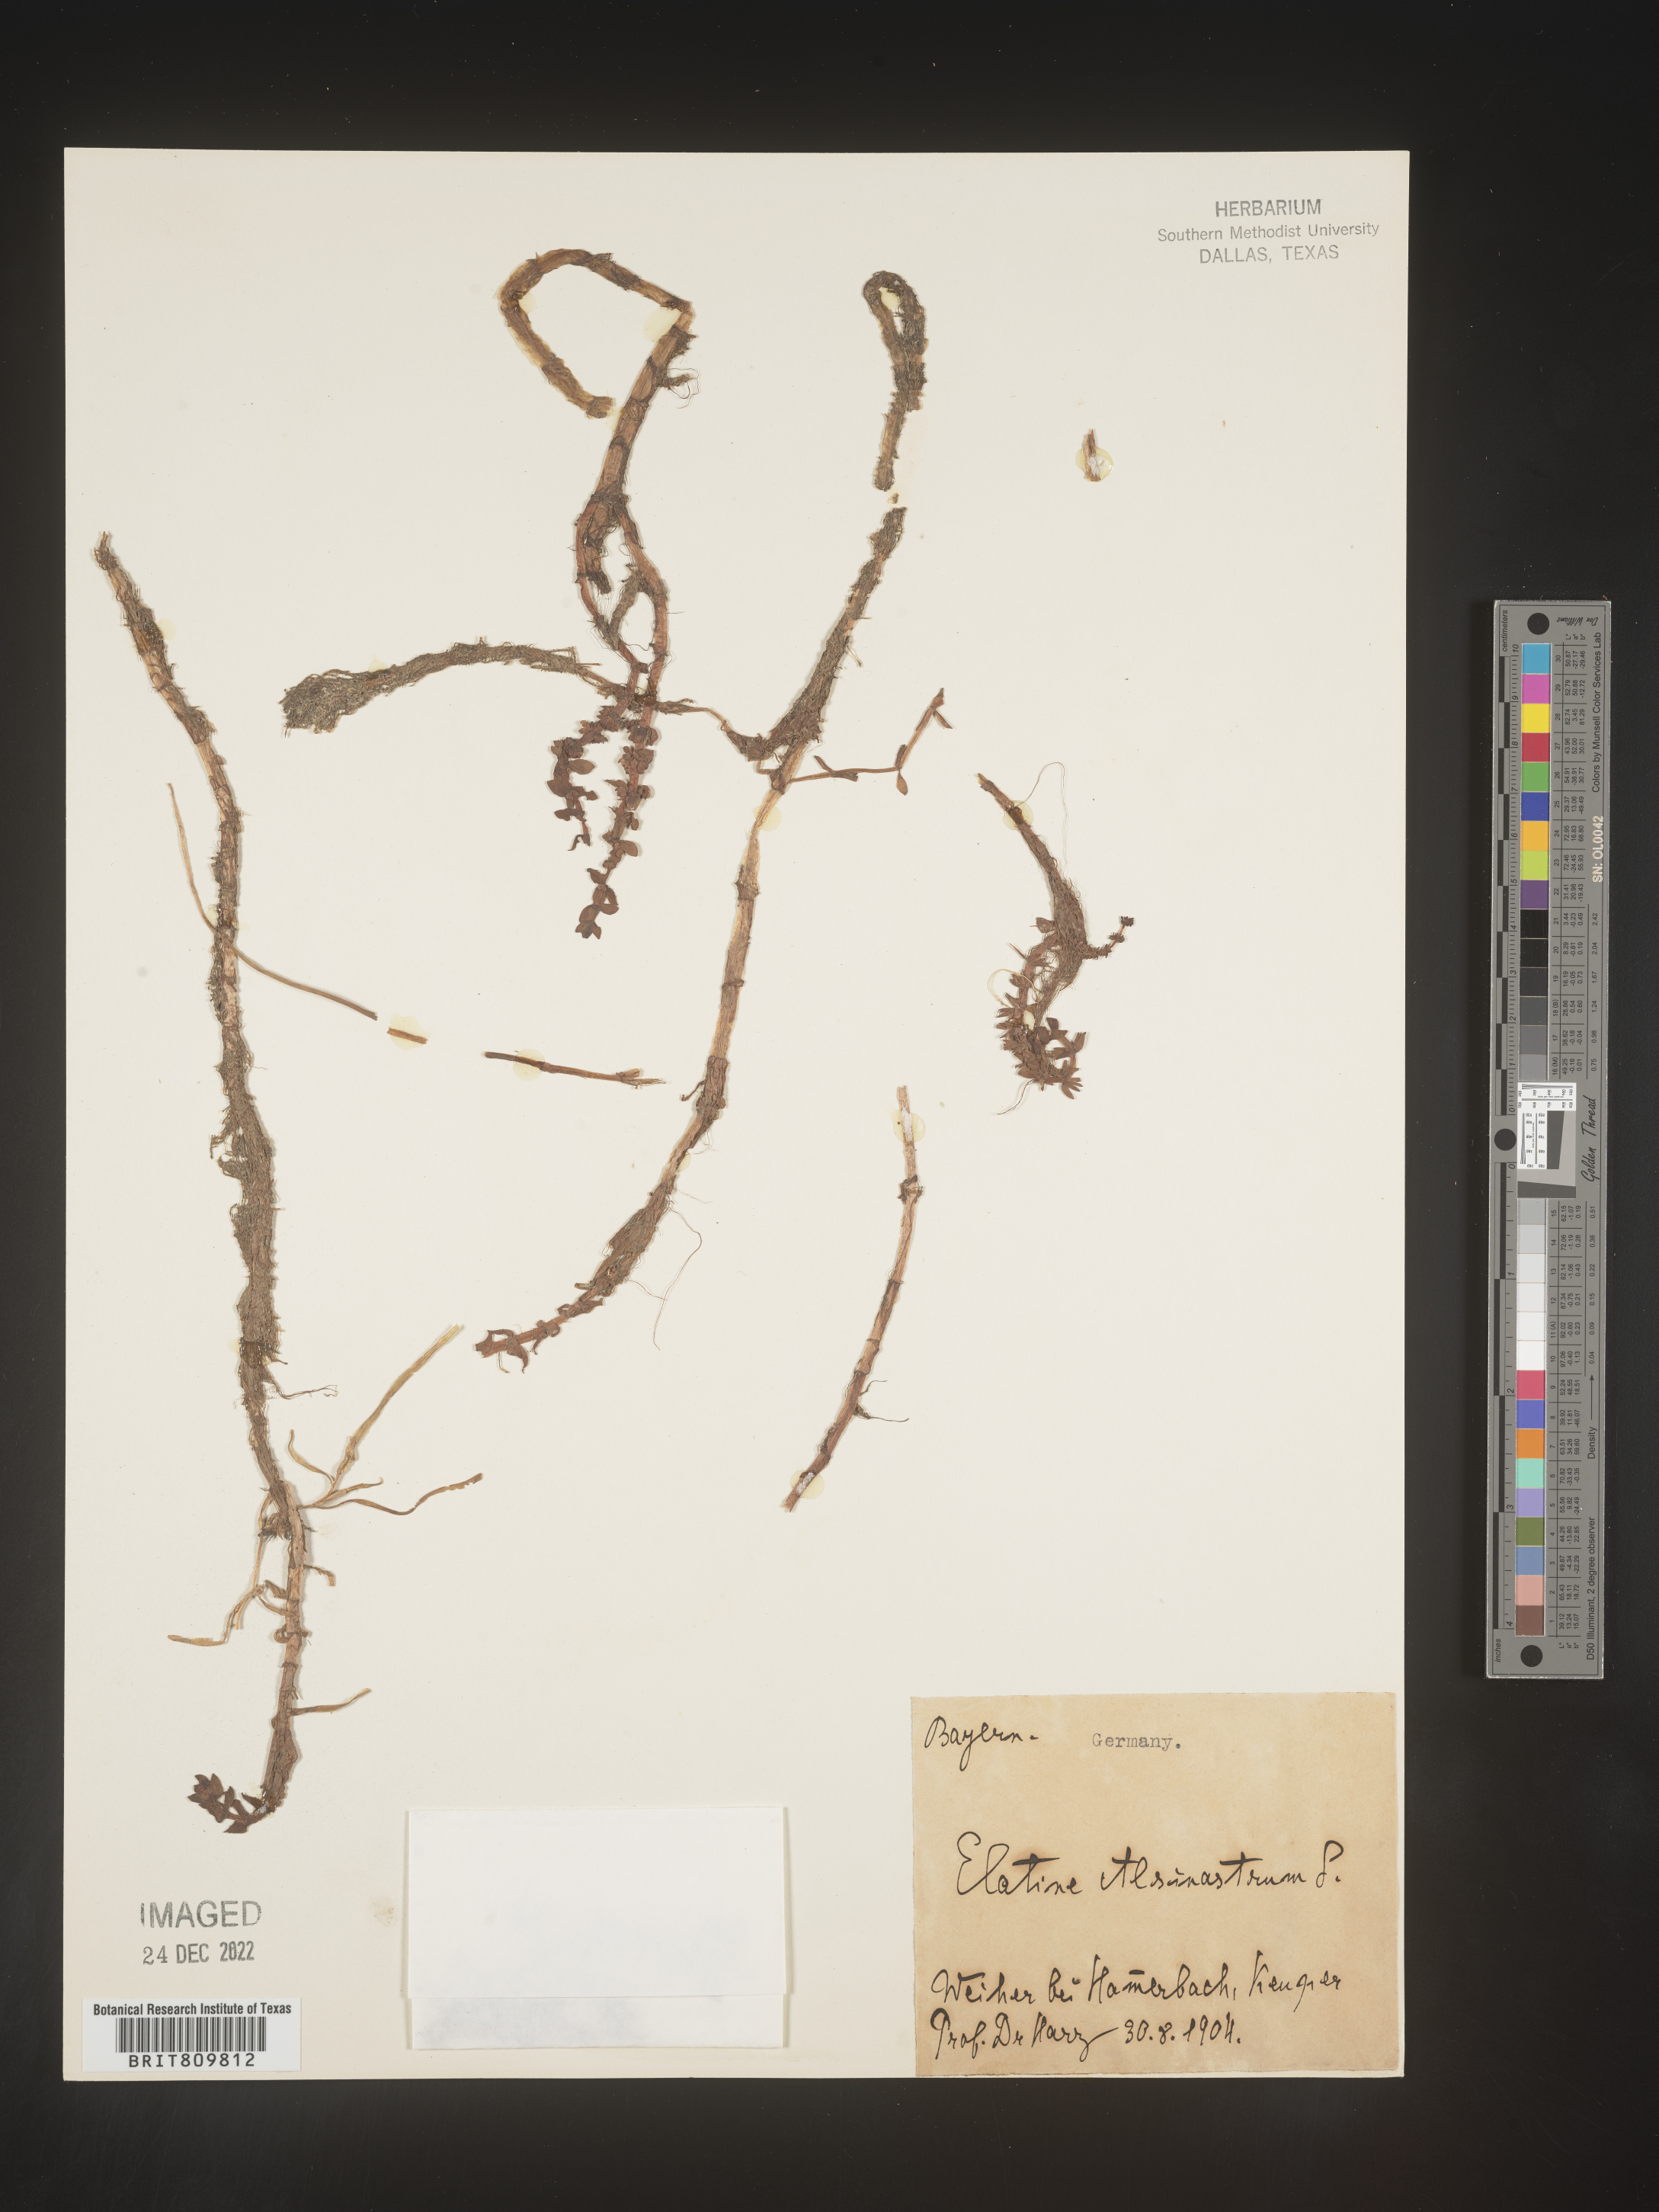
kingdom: Plantae
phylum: Tracheophyta
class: Magnoliopsida
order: Malpighiales
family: Elatinaceae
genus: Elatine
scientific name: Elatine
